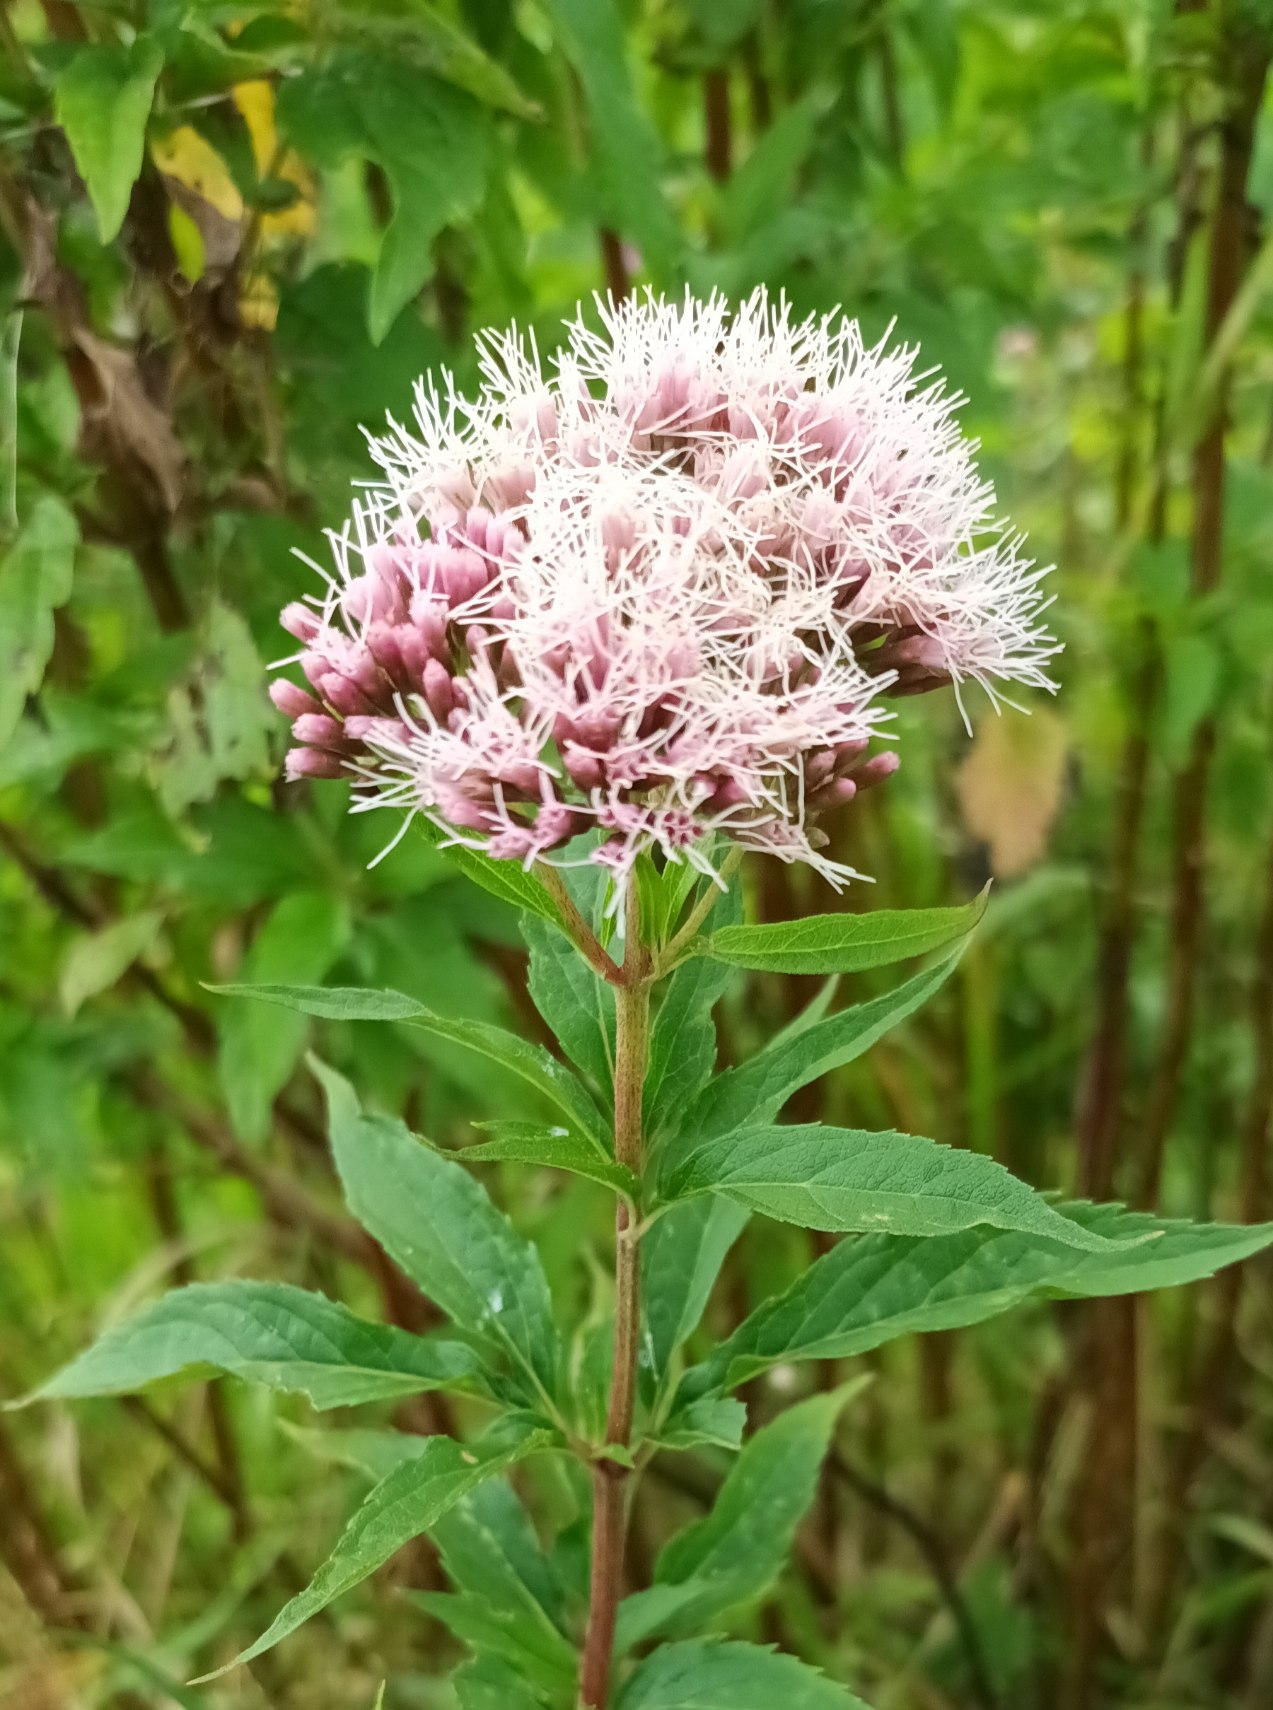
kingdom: Plantae
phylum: Tracheophyta
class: Magnoliopsida
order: Asterales
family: Asteraceae
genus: Eupatorium
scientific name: Eupatorium cannabinum
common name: Hjortetrøst
